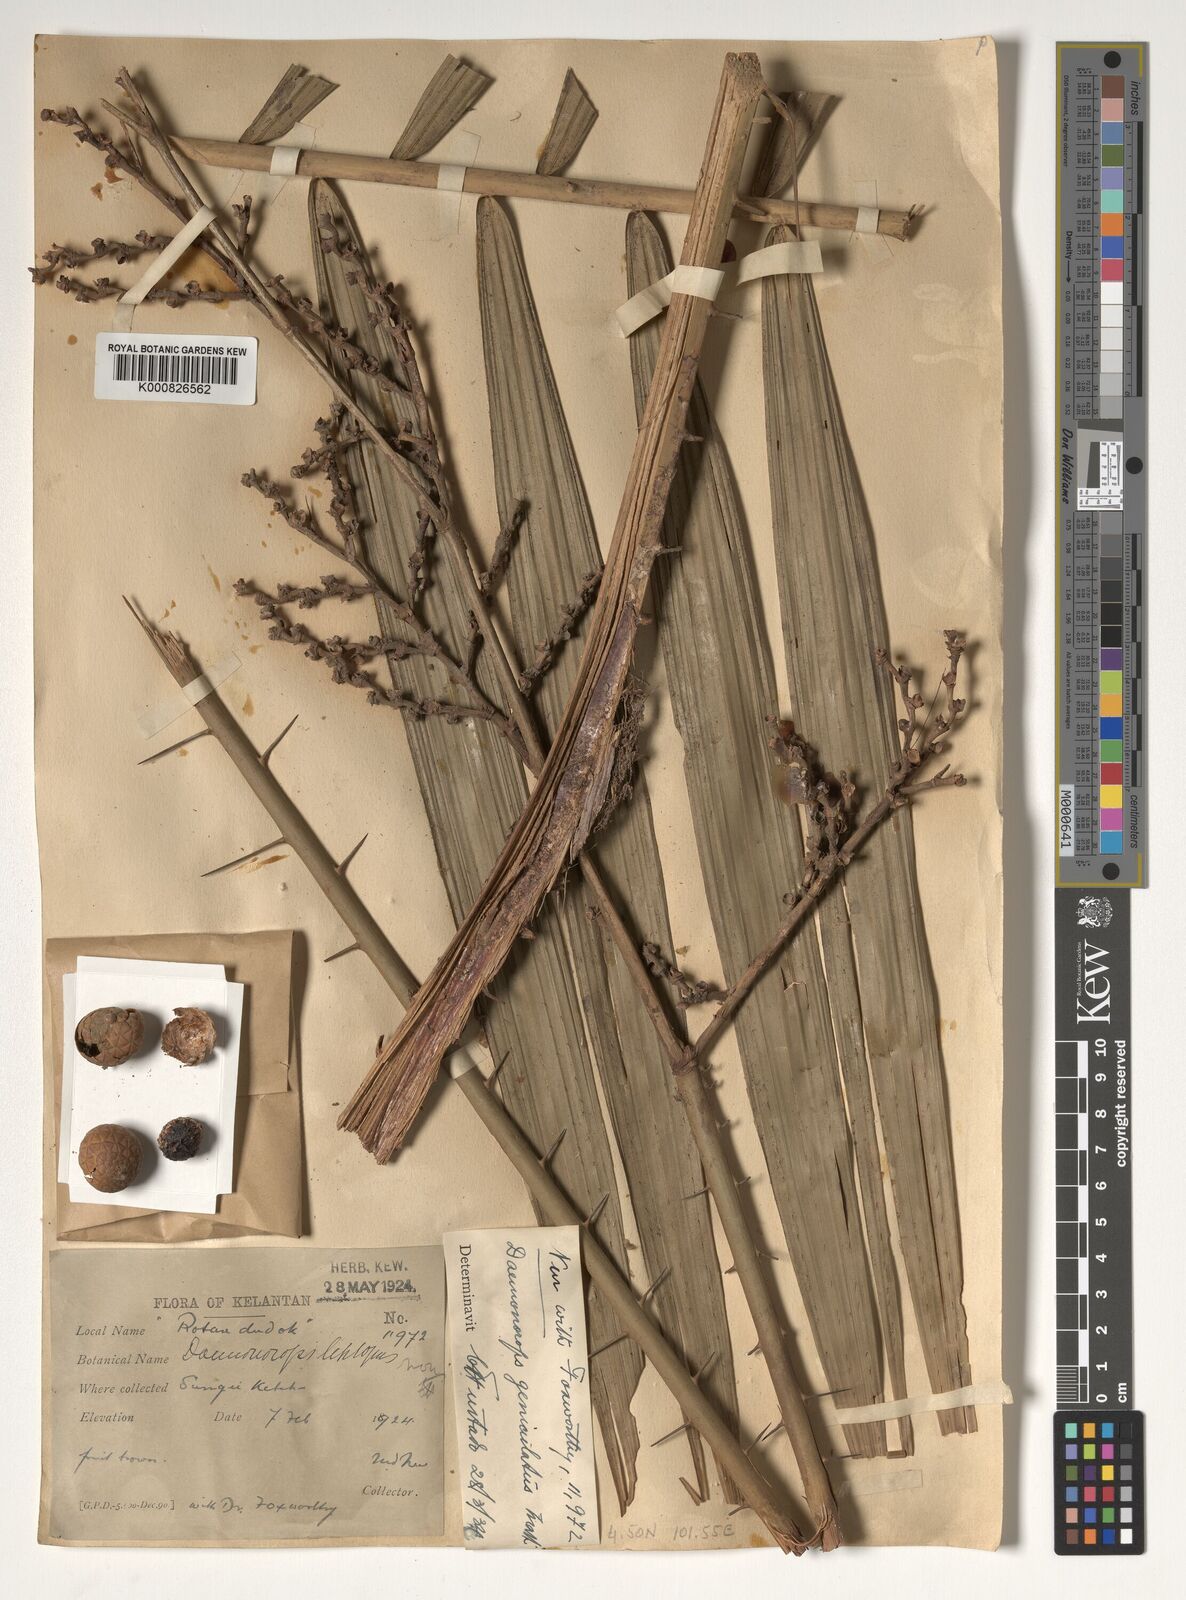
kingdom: Plantae
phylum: Tracheophyta
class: Liliopsida
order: Arecales
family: Arecaceae
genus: Calamus
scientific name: Calamus geniculatus
